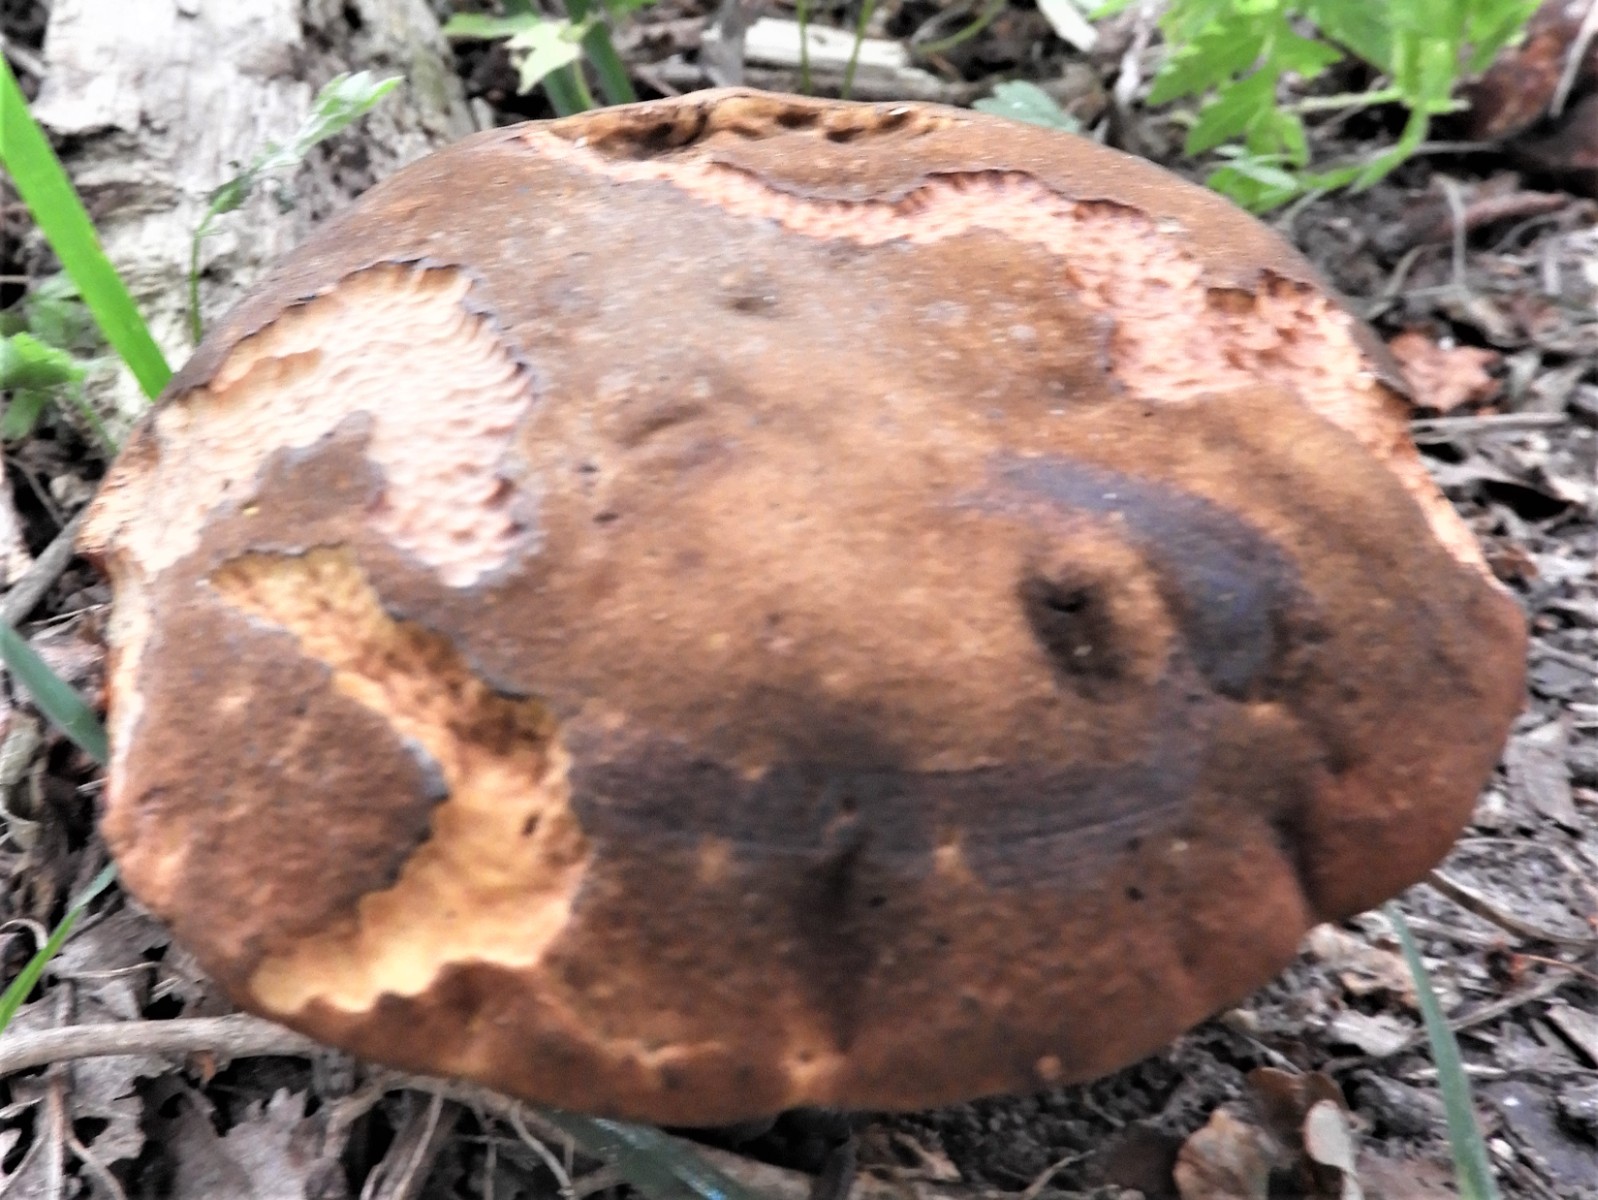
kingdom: Fungi
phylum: Basidiomycota
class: Agaricomycetes
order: Boletales
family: Boletaceae
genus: Neoboletus
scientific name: Neoboletus erythropus
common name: punktstokket indigorørhat
